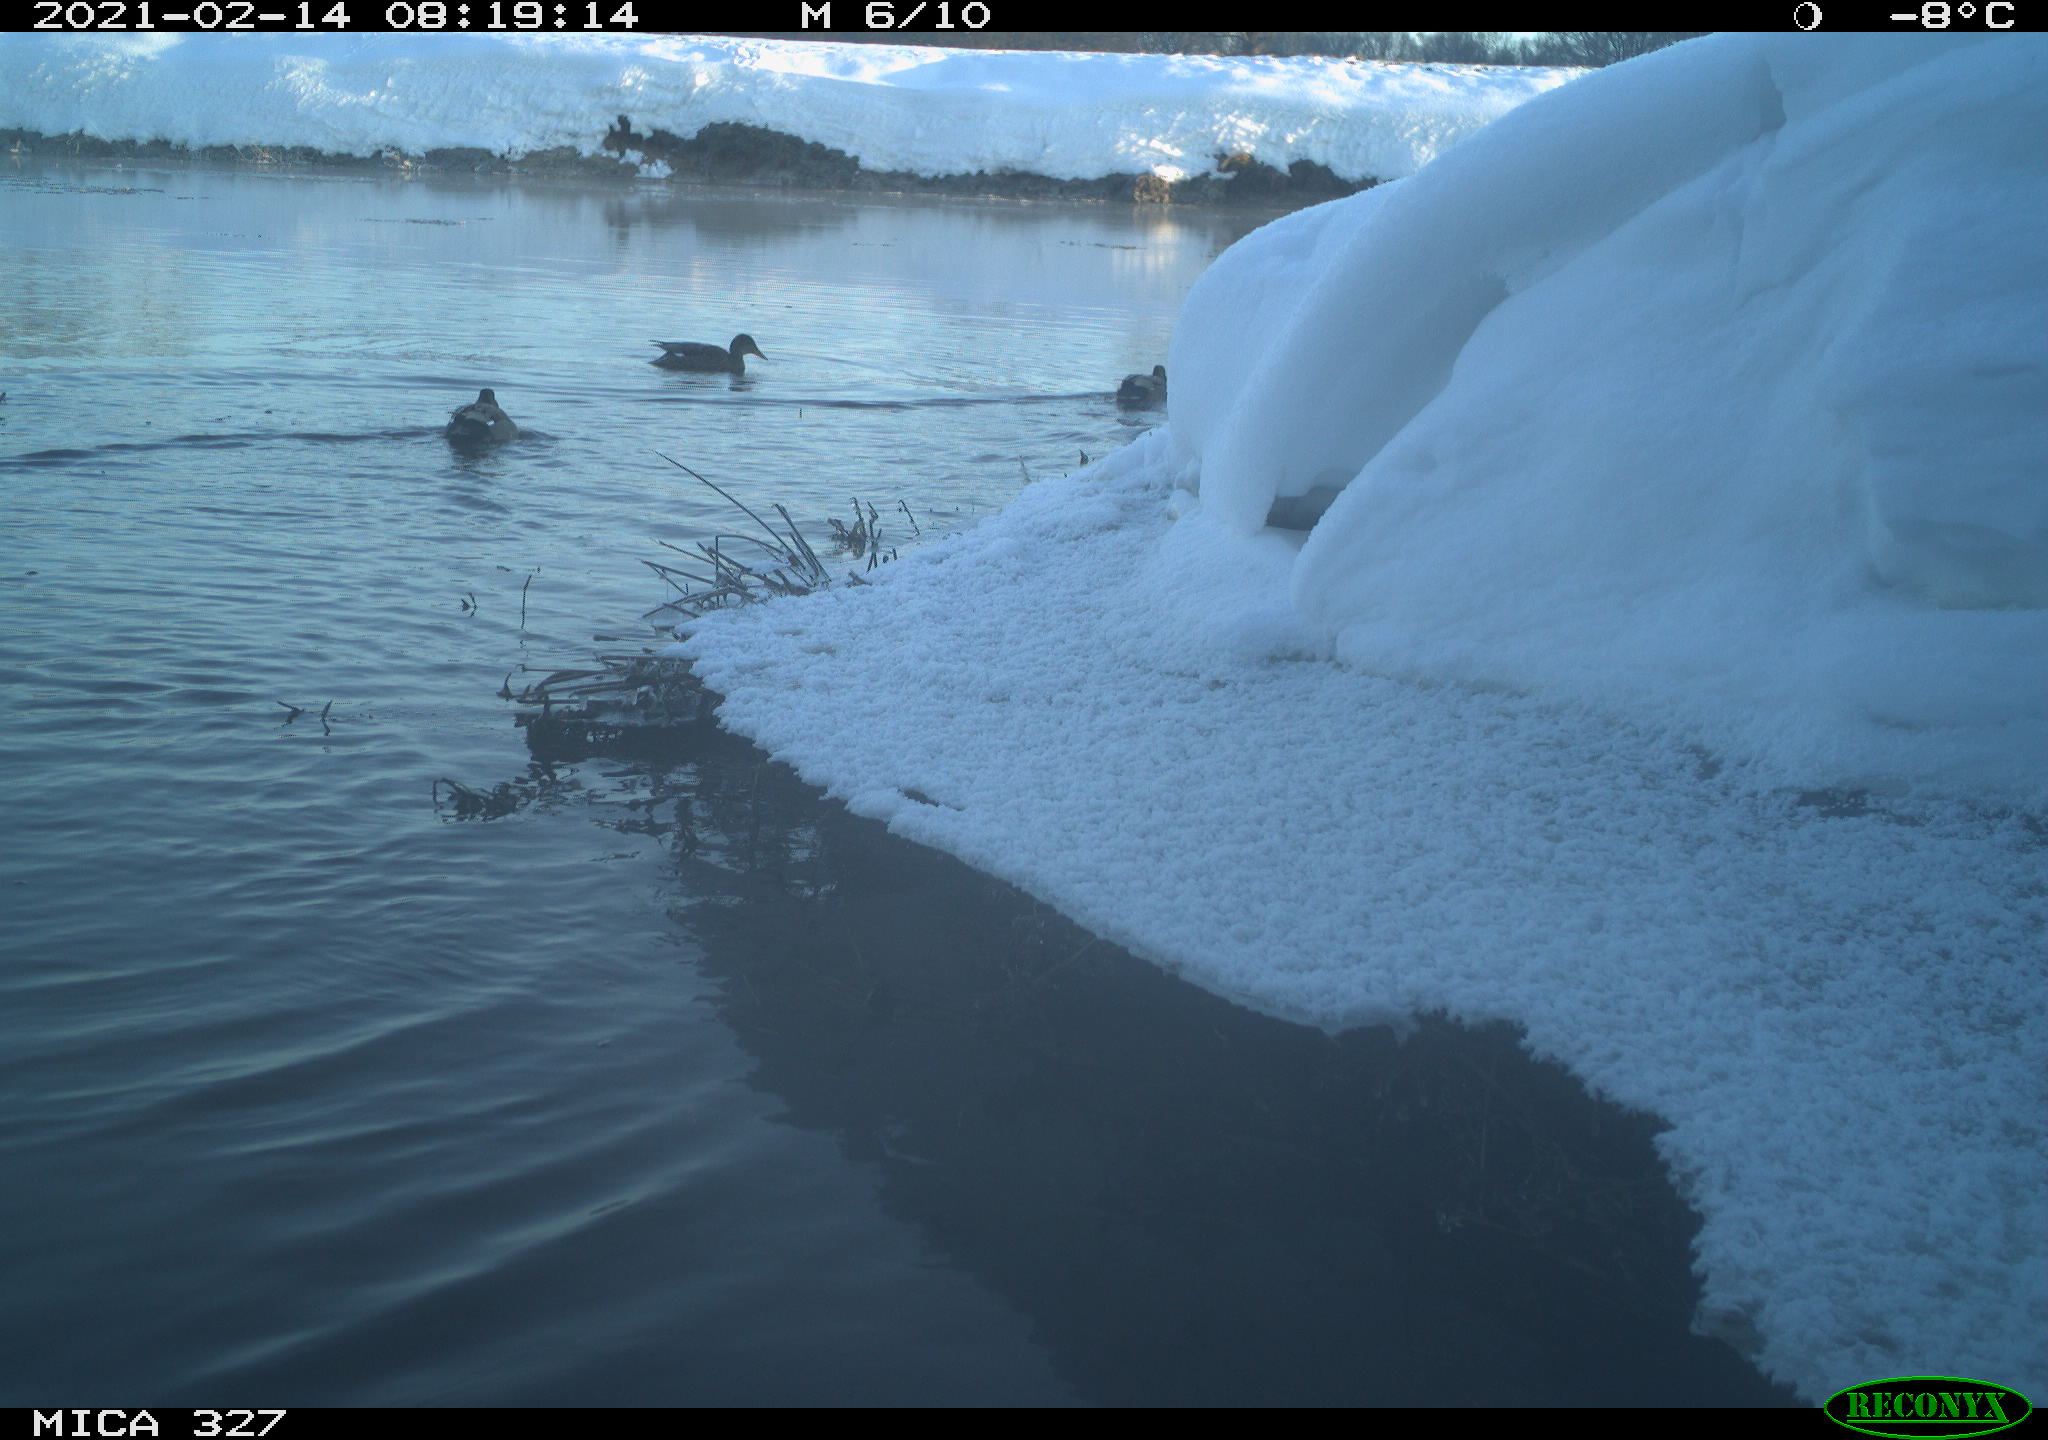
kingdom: Animalia
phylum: Chordata
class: Aves
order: Anseriformes
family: Anatidae
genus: Anas
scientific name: Anas
